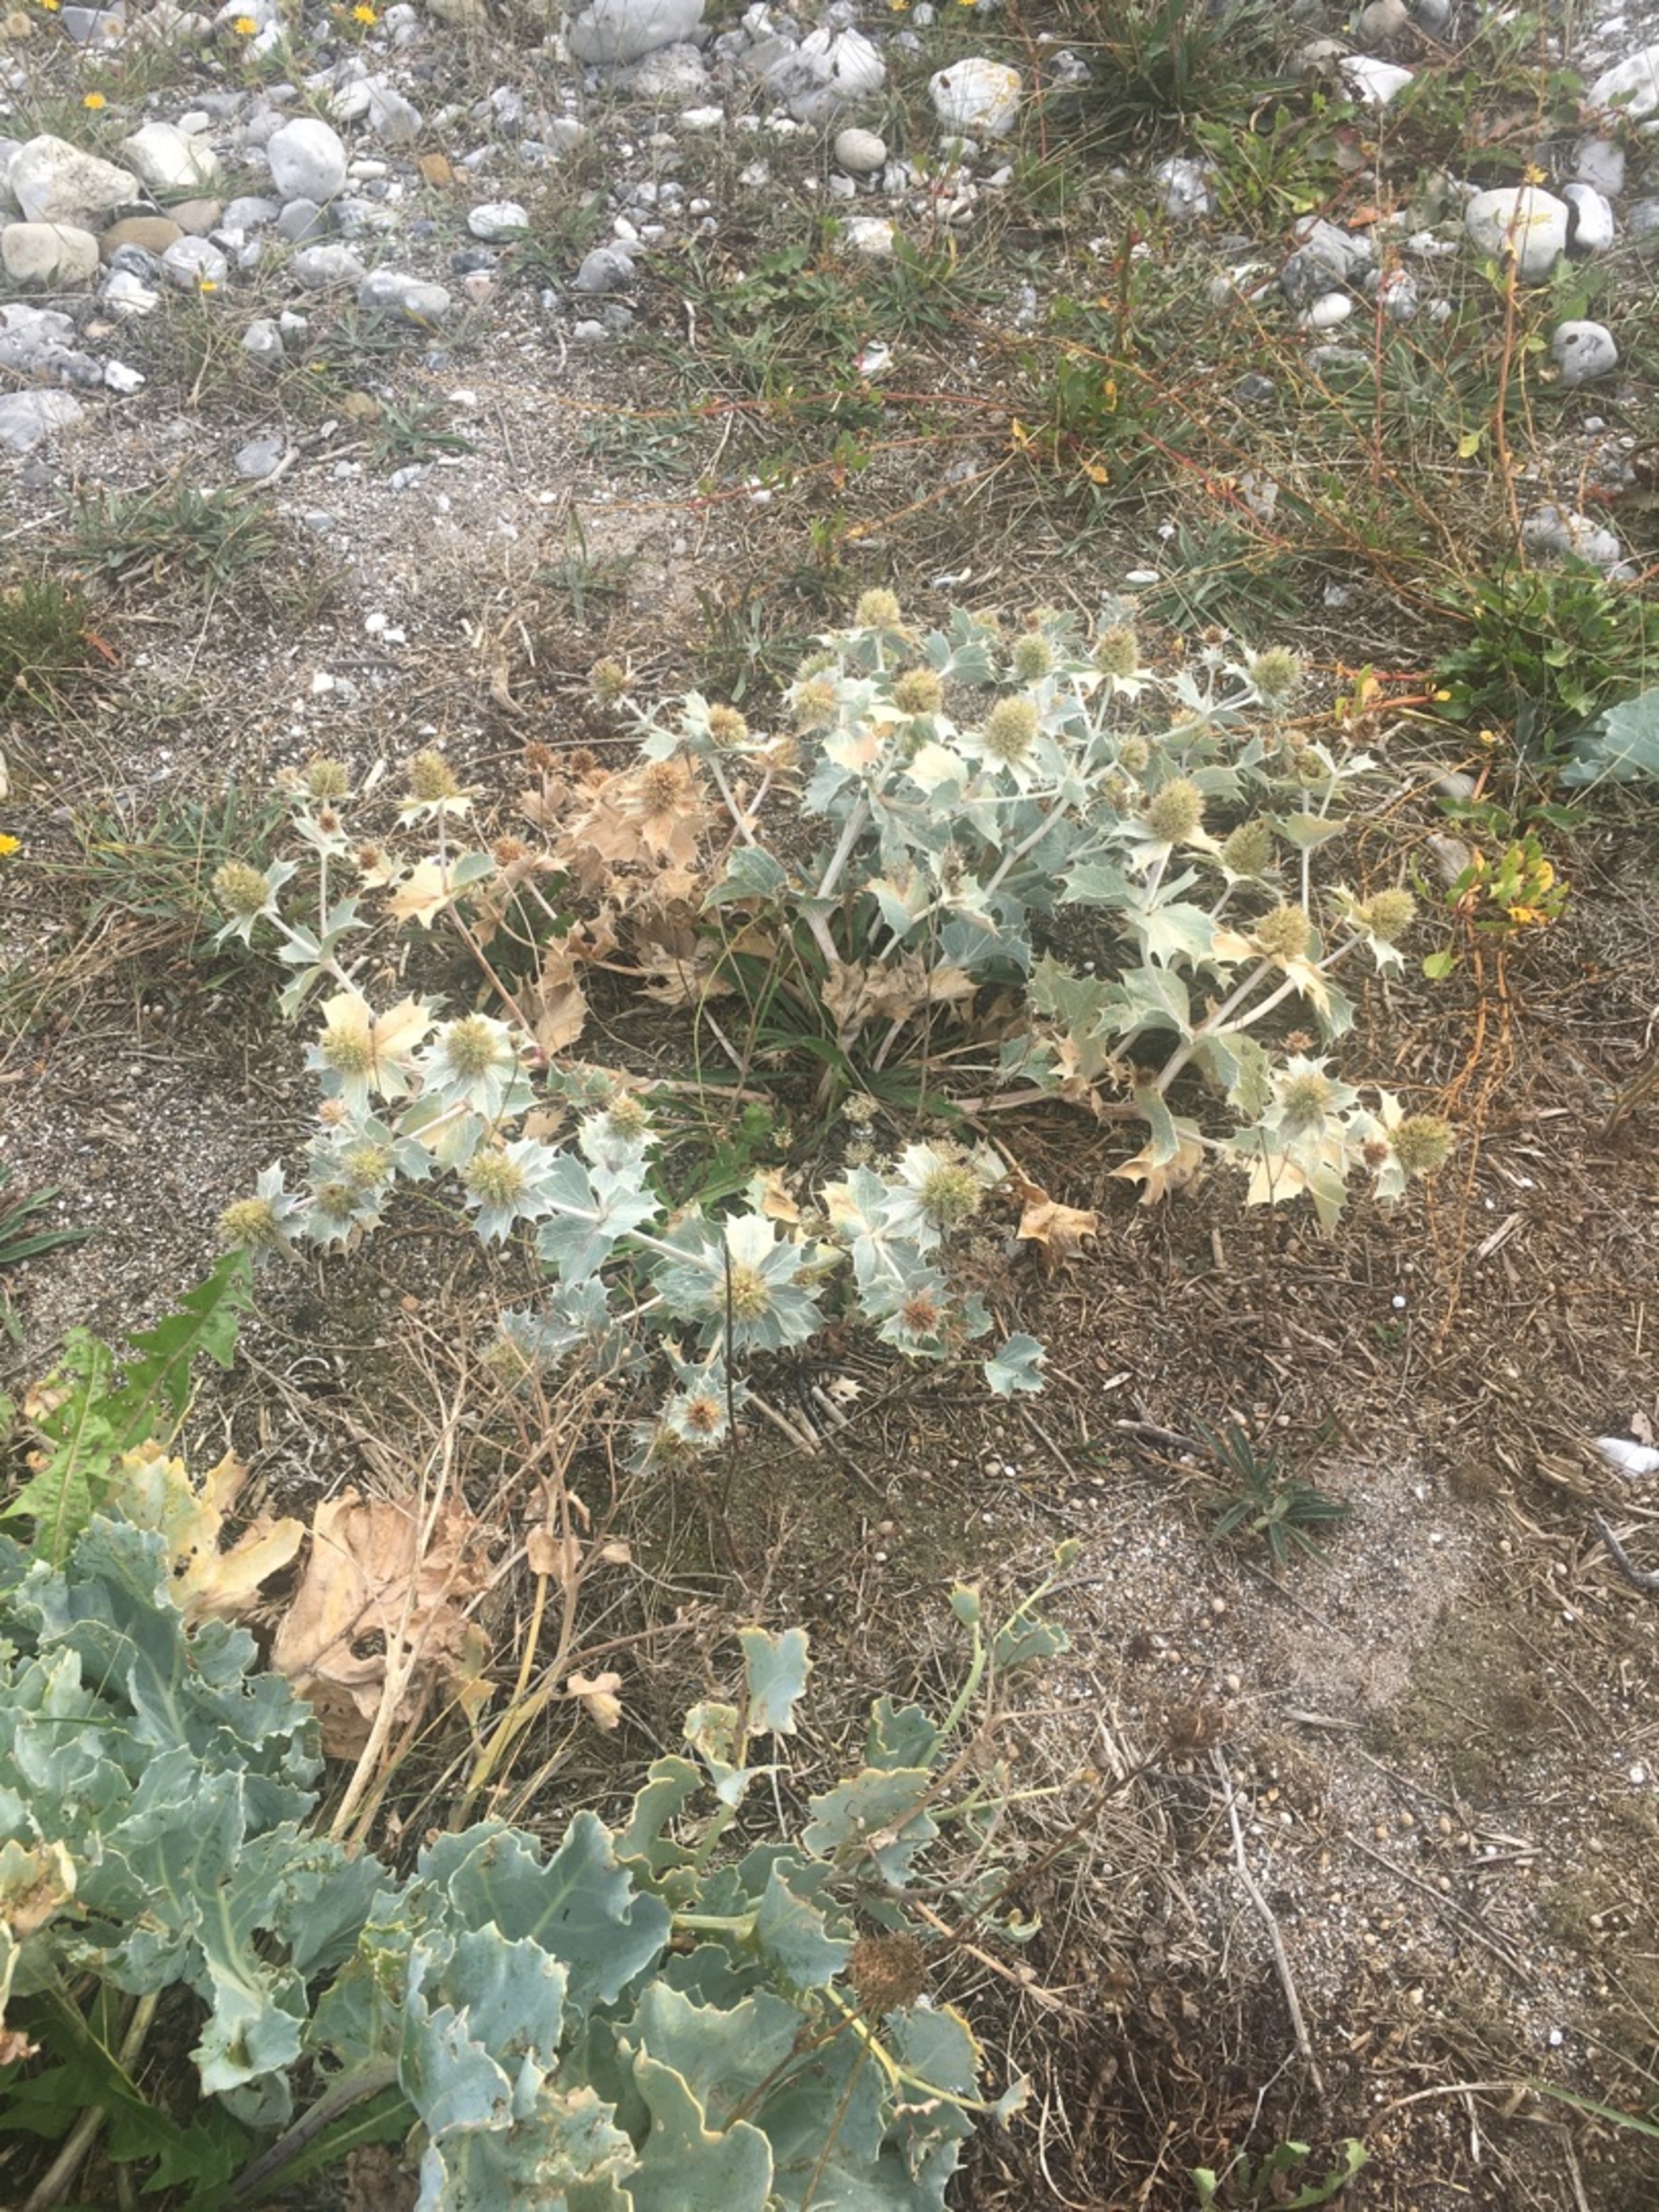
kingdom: Plantae
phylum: Tracheophyta
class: Magnoliopsida
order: Apiales
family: Apiaceae
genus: Eryngium
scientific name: Eryngium maritimum
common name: Strand-mandstro
